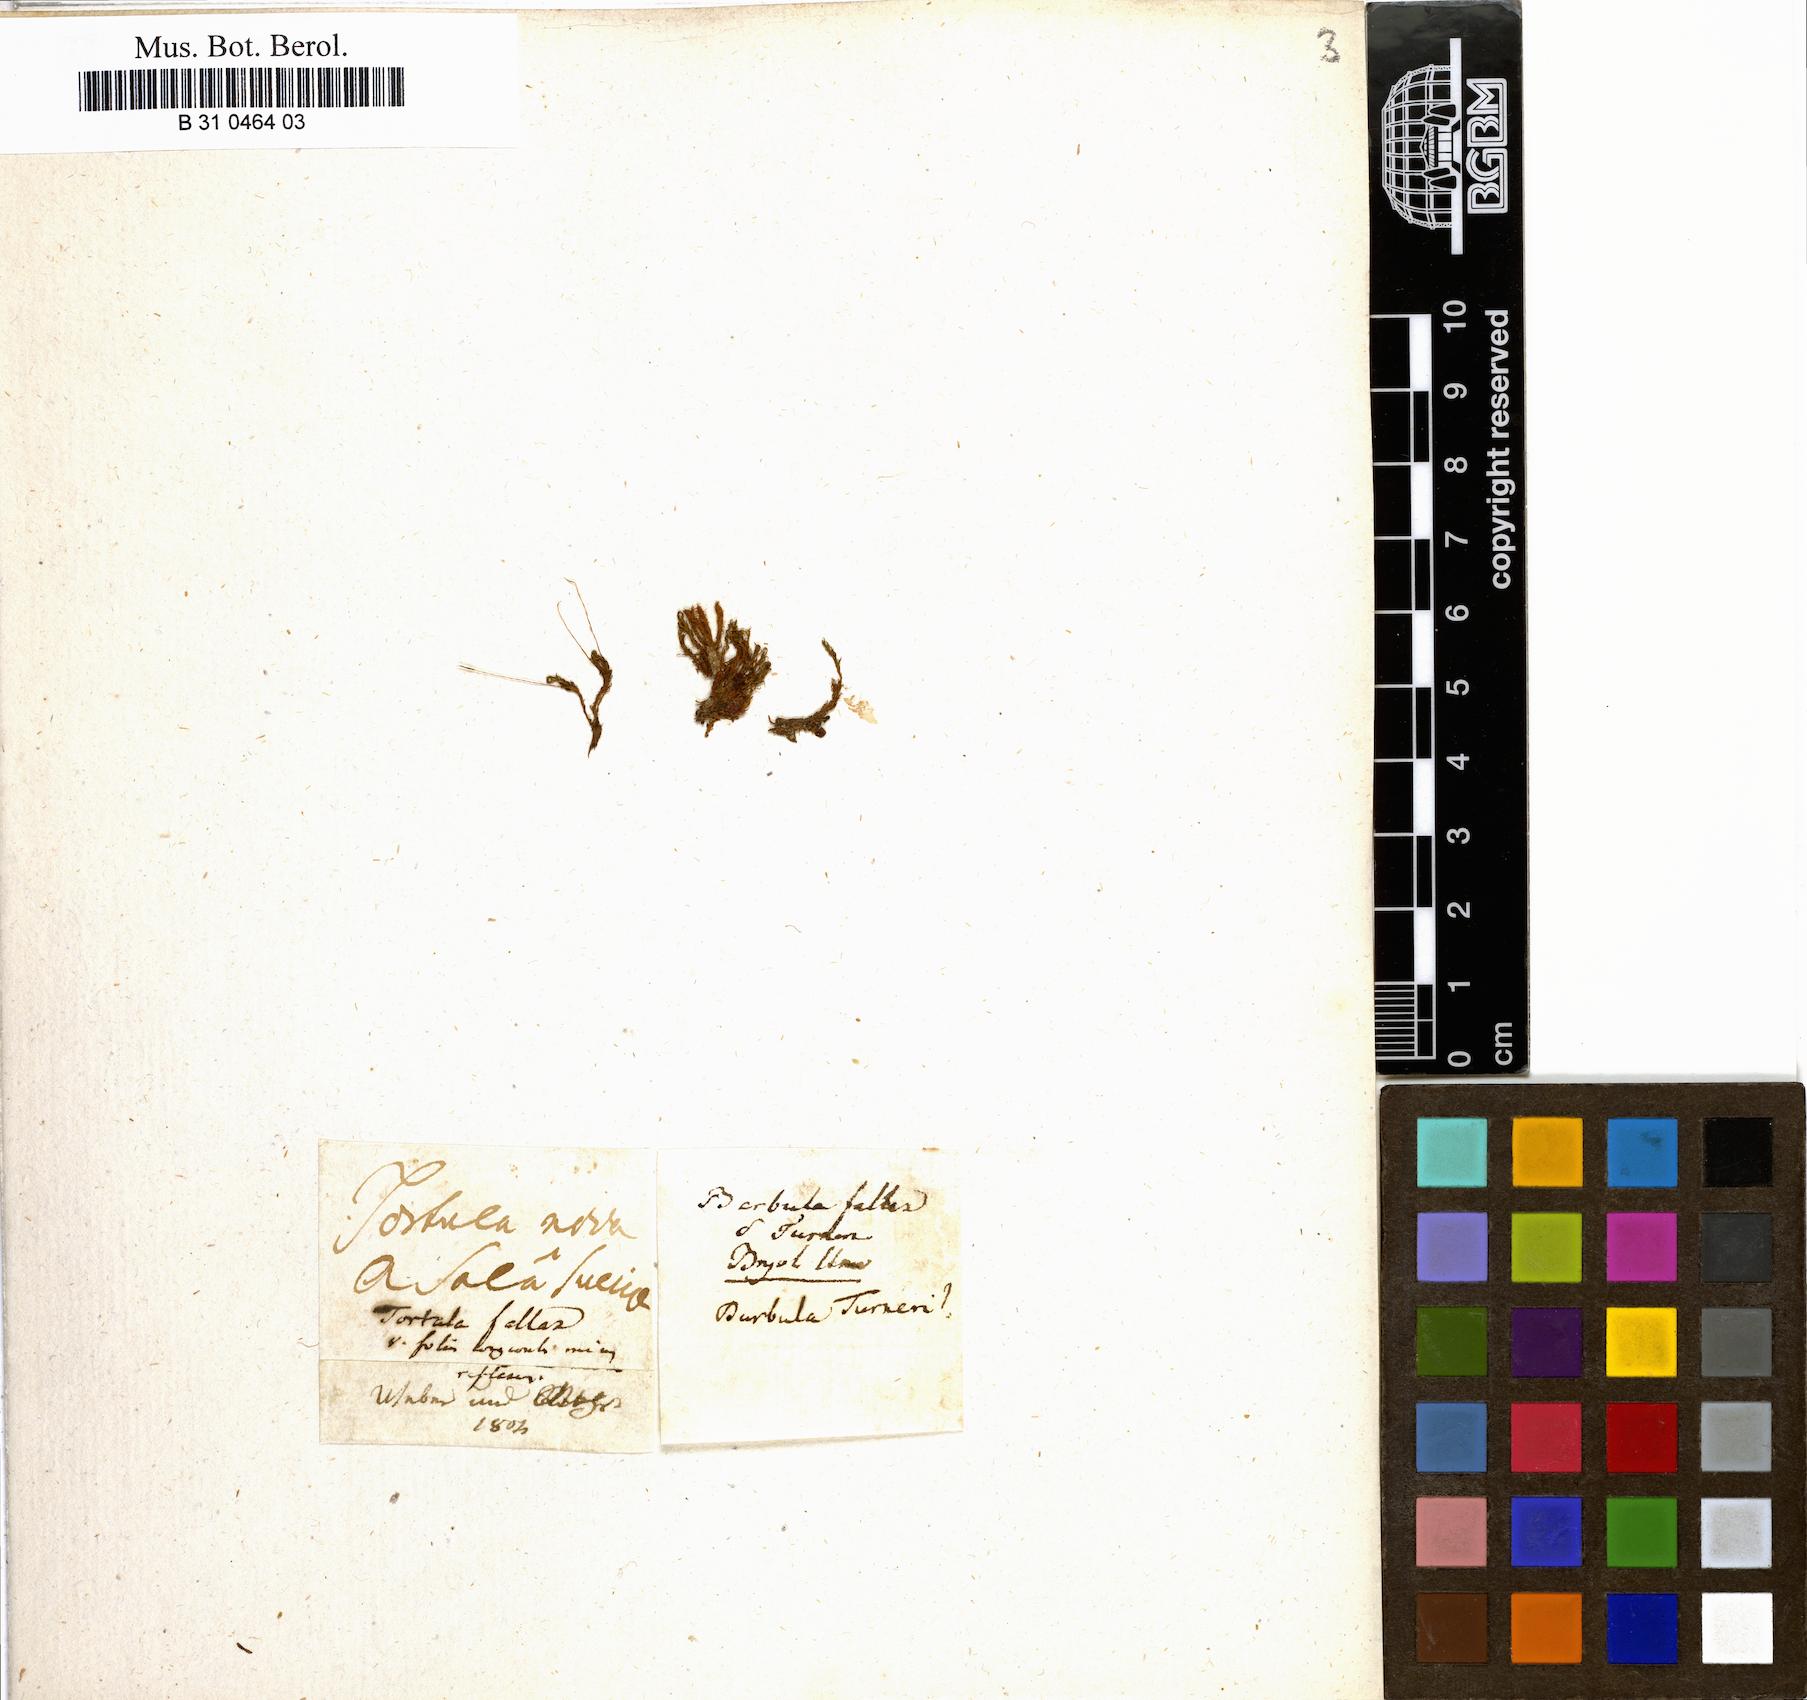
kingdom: Plantae
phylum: Bryophyta
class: Bryopsida
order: Pottiales
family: Pottiaceae
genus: Geheebia
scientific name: Geheebia fallax
